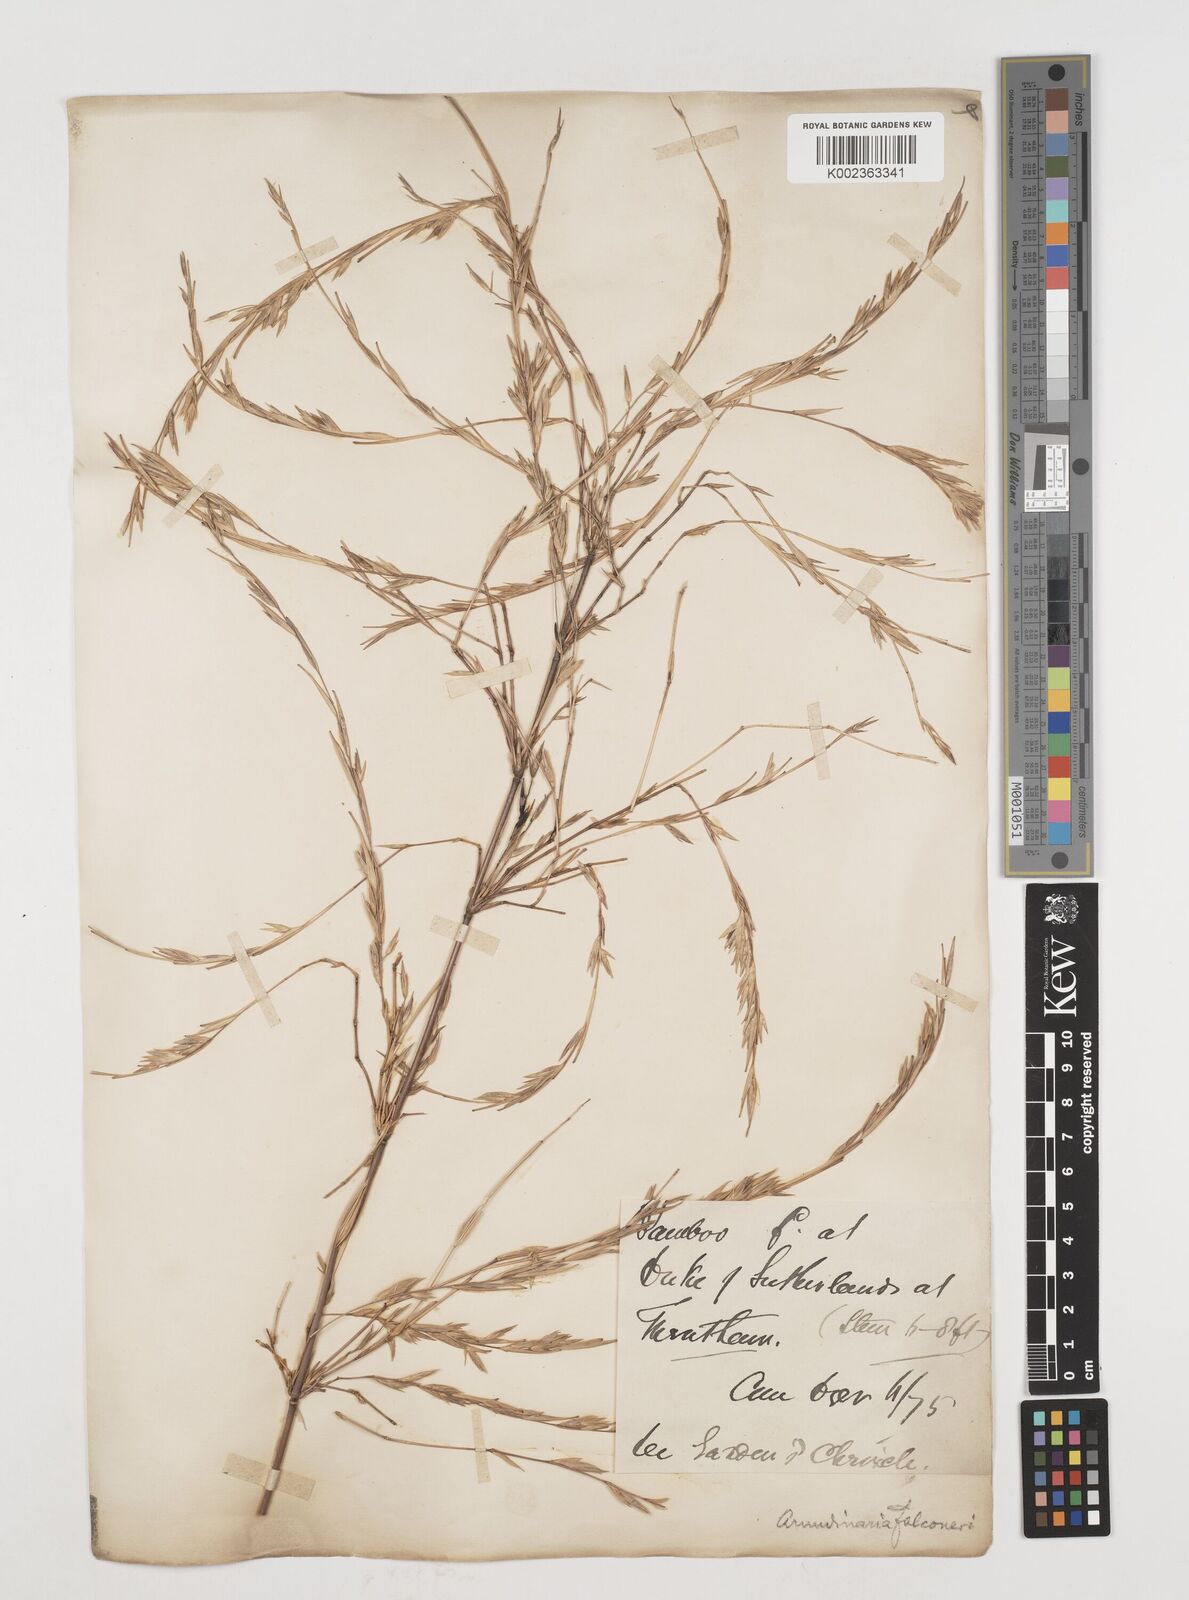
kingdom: Plantae
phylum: Tracheophyta
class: Liliopsida
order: Poales
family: Poaceae
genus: Himalayacalamus
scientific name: Himalayacalamus falconeri
